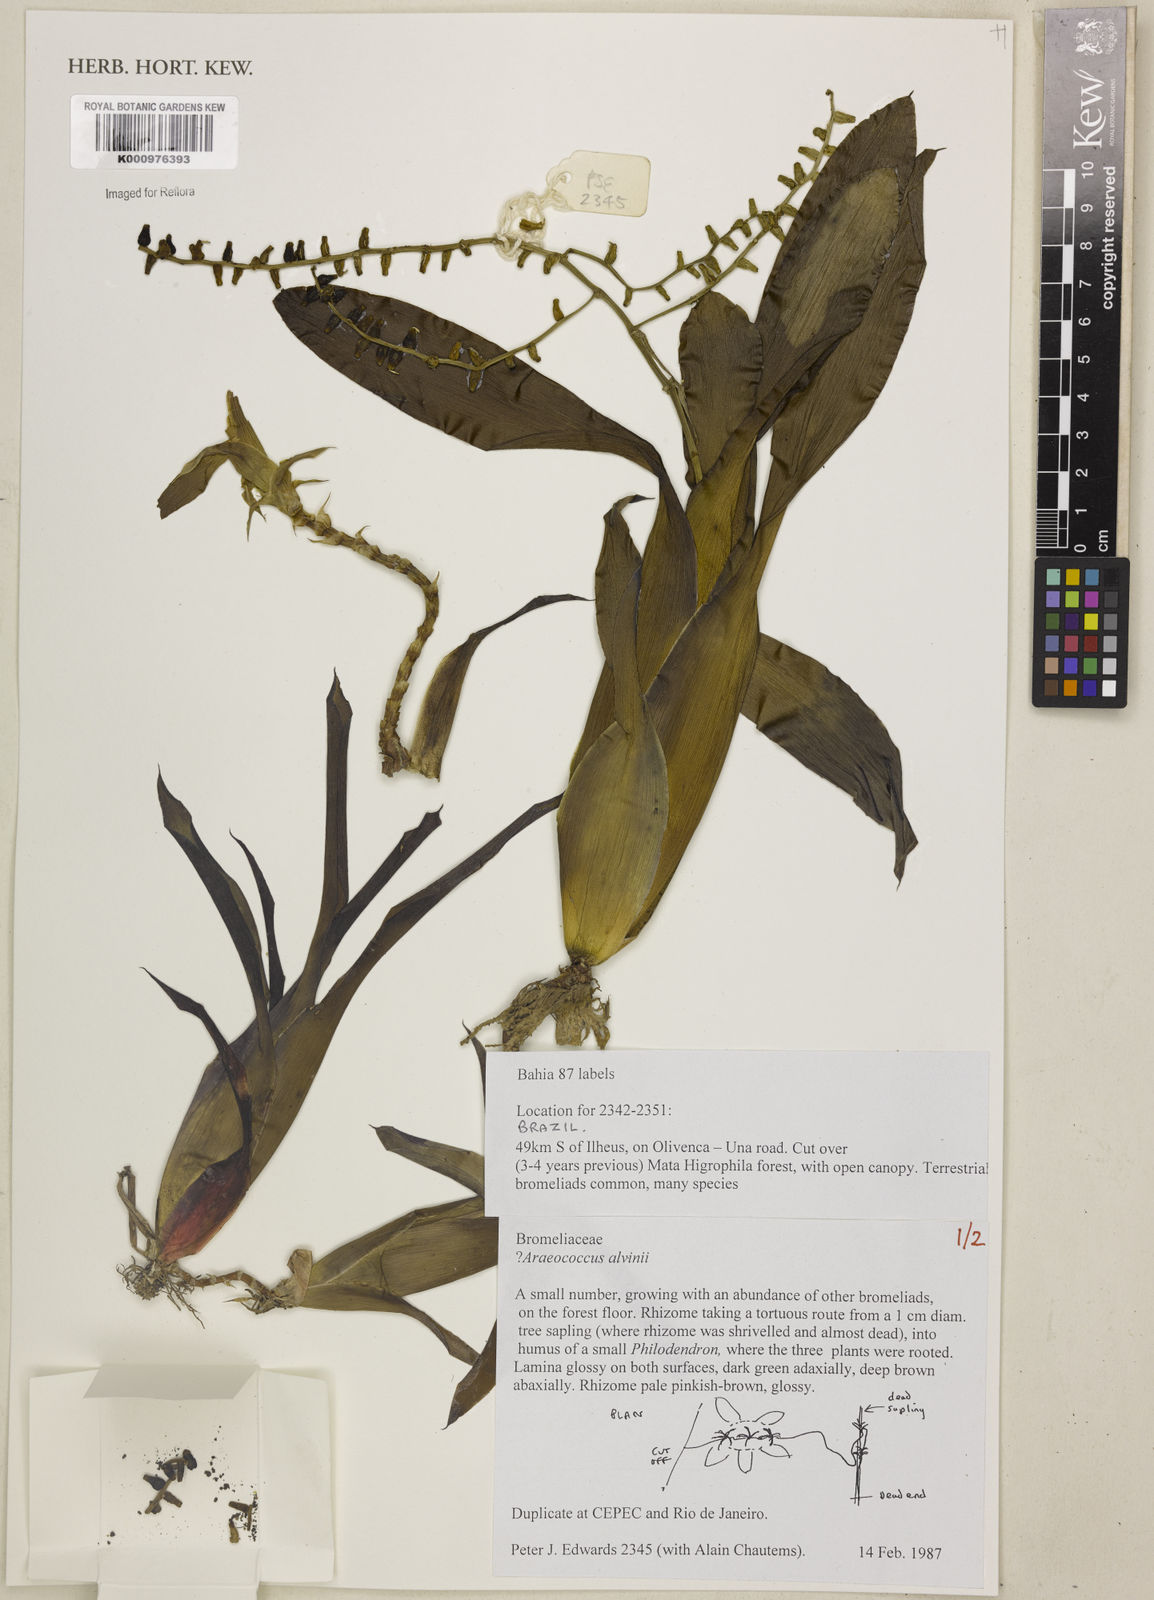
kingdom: Plantae
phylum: Tracheophyta
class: Liliopsida
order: Poales
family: Bromeliaceae
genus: Lymania
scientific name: Lymania alvimii
